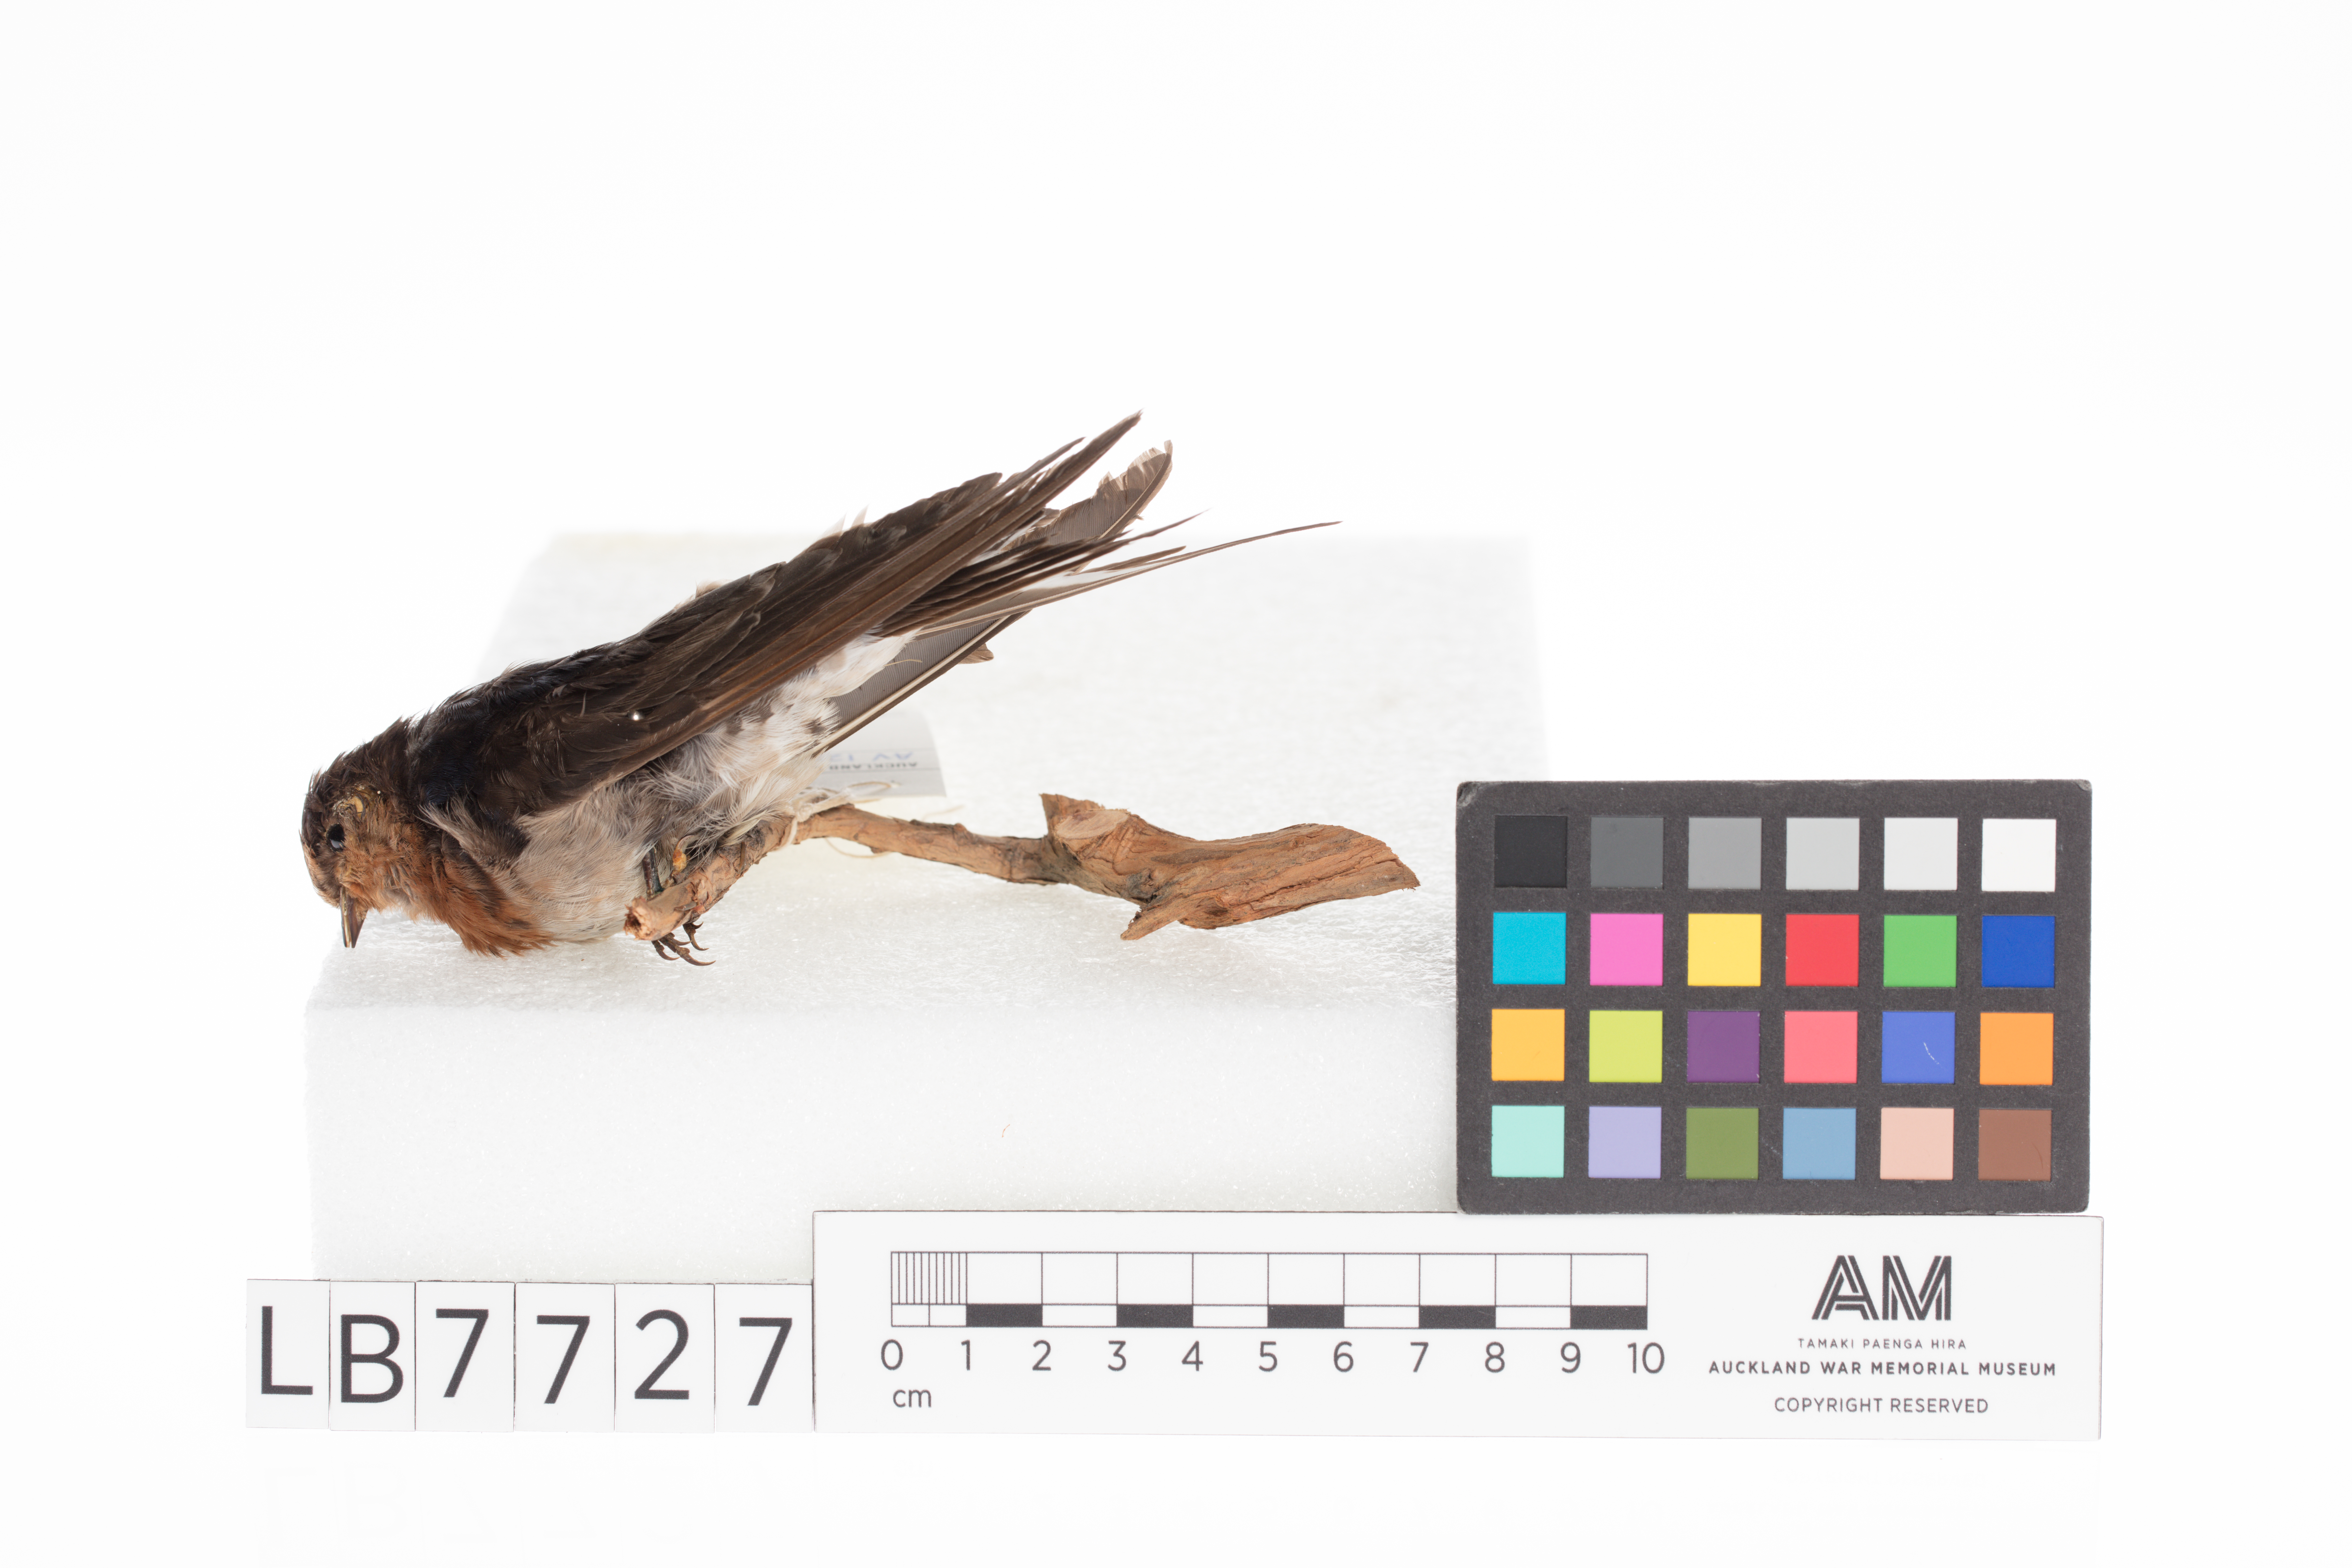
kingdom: Animalia
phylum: Chordata
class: Aves
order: Passeriformes
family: Hirundinidae
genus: Hirundo
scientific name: Hirundo neoxena
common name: Welcome swallow
